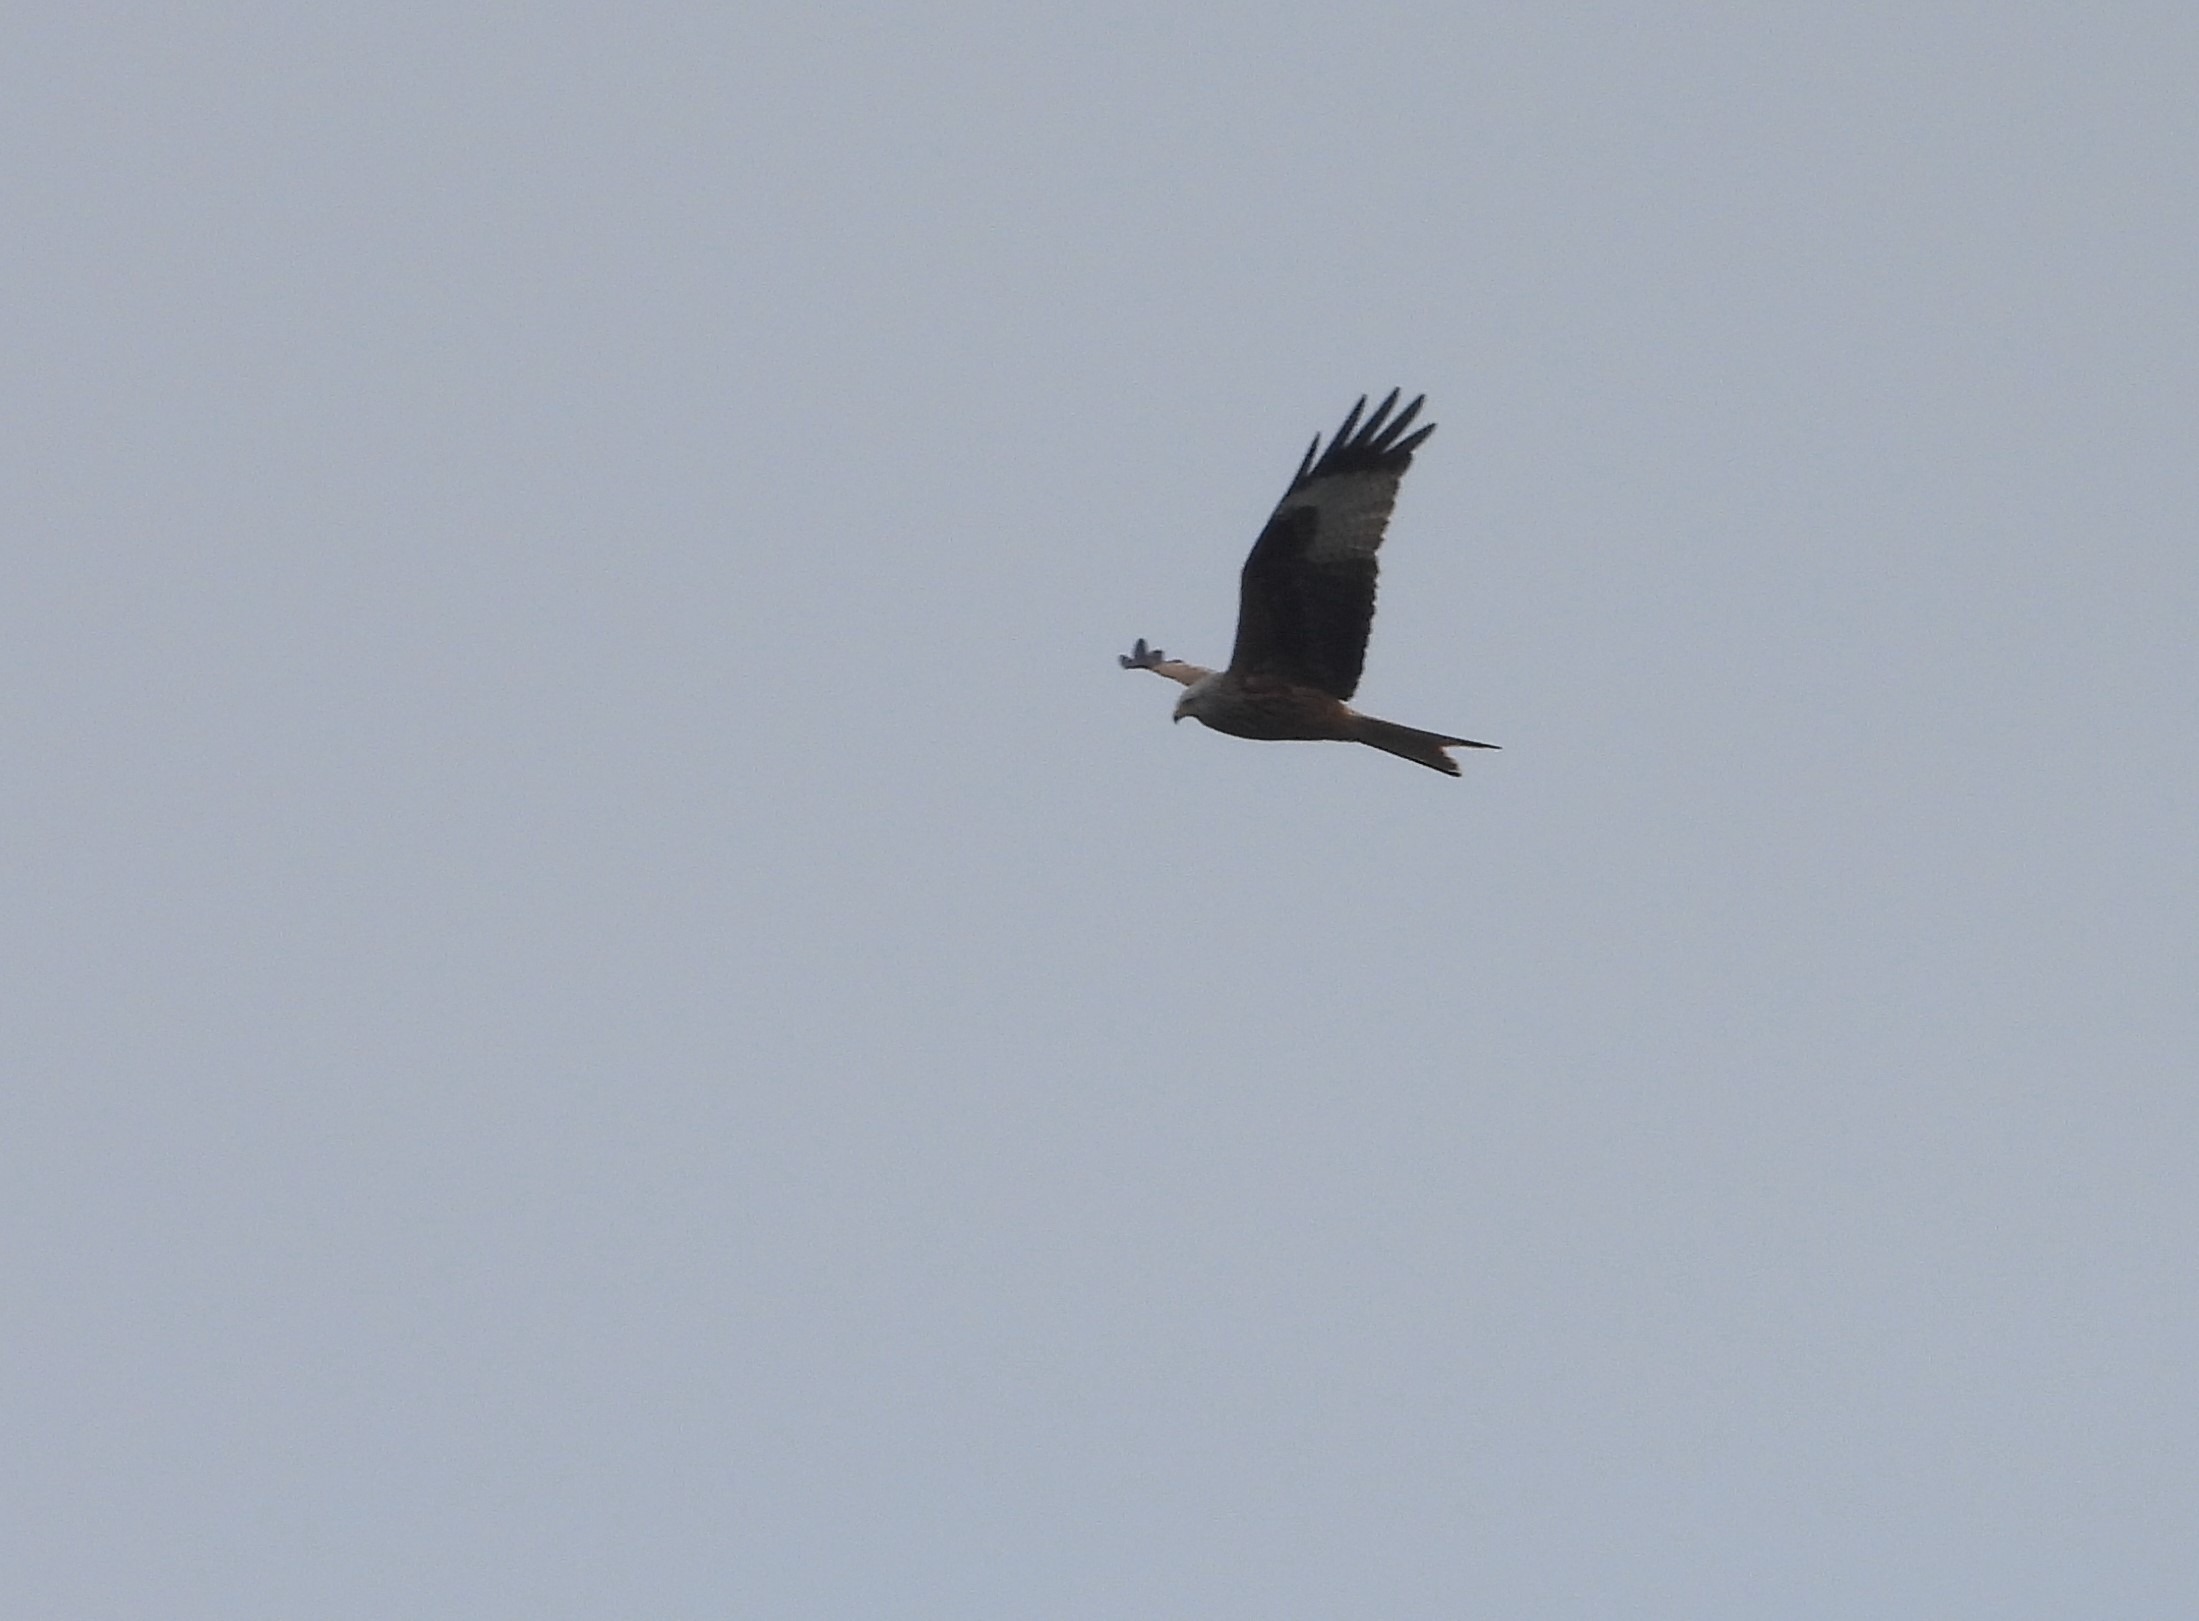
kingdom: Animalia
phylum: Chordata
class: Aves
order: Accipitriformes
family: Accipitridae
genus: Milvus
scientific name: Milvus milvus
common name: Rød glente
